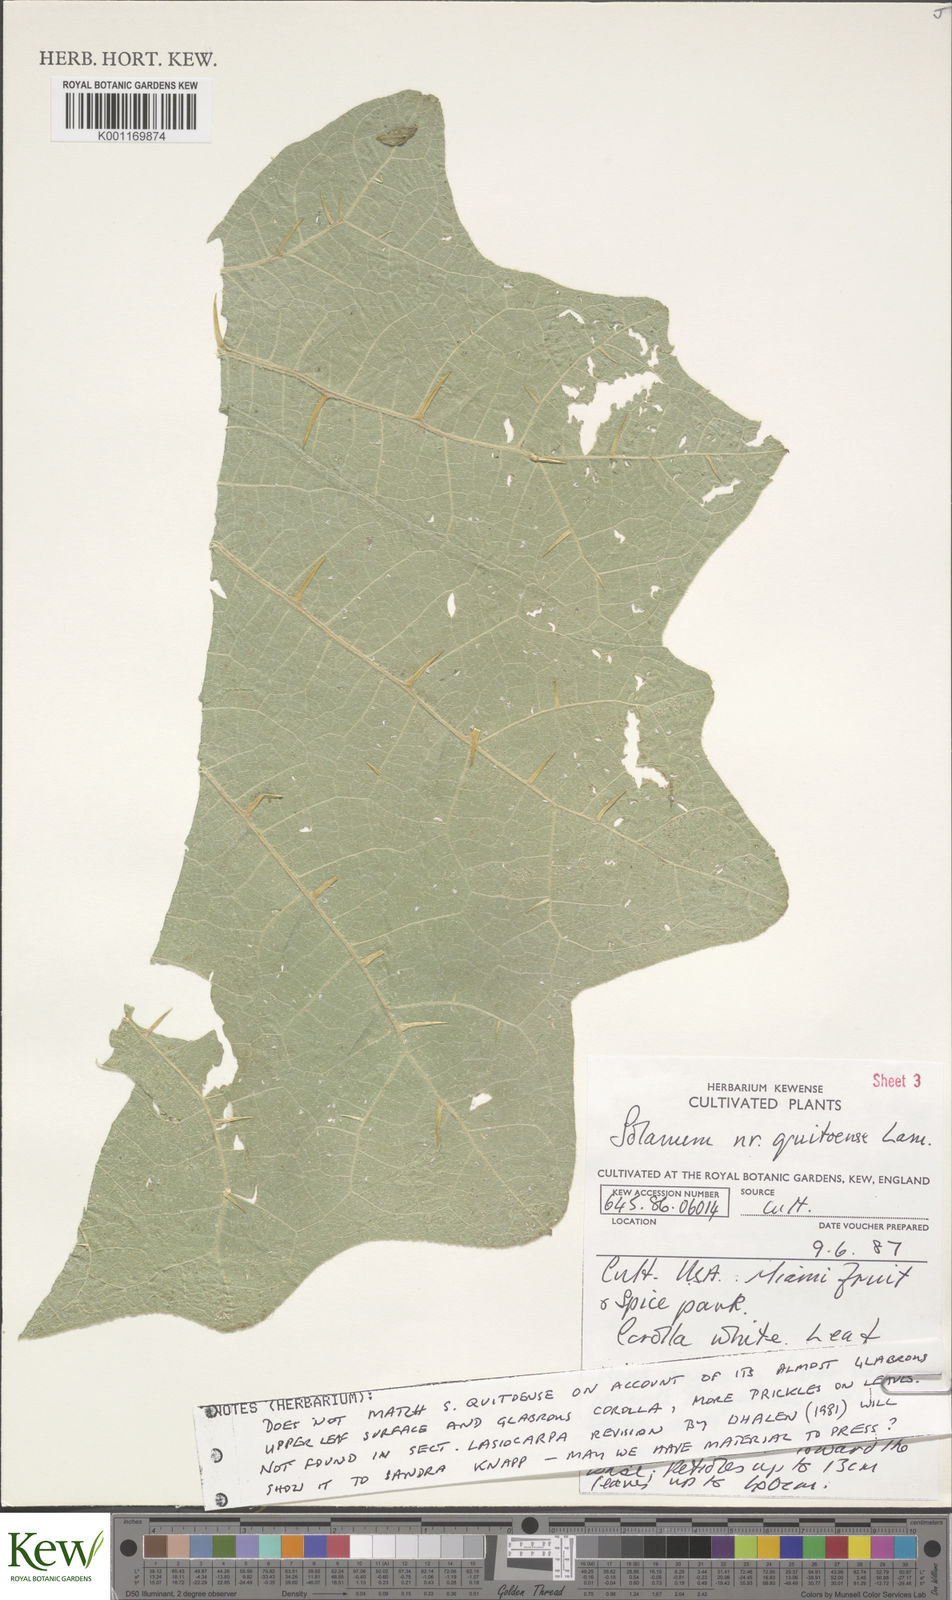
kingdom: Plantae
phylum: Tracheophyta
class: Magnoliopsida
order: Solanales
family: Solanaceae
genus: Solanum
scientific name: Solanum quitoense
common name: Quito-orange
